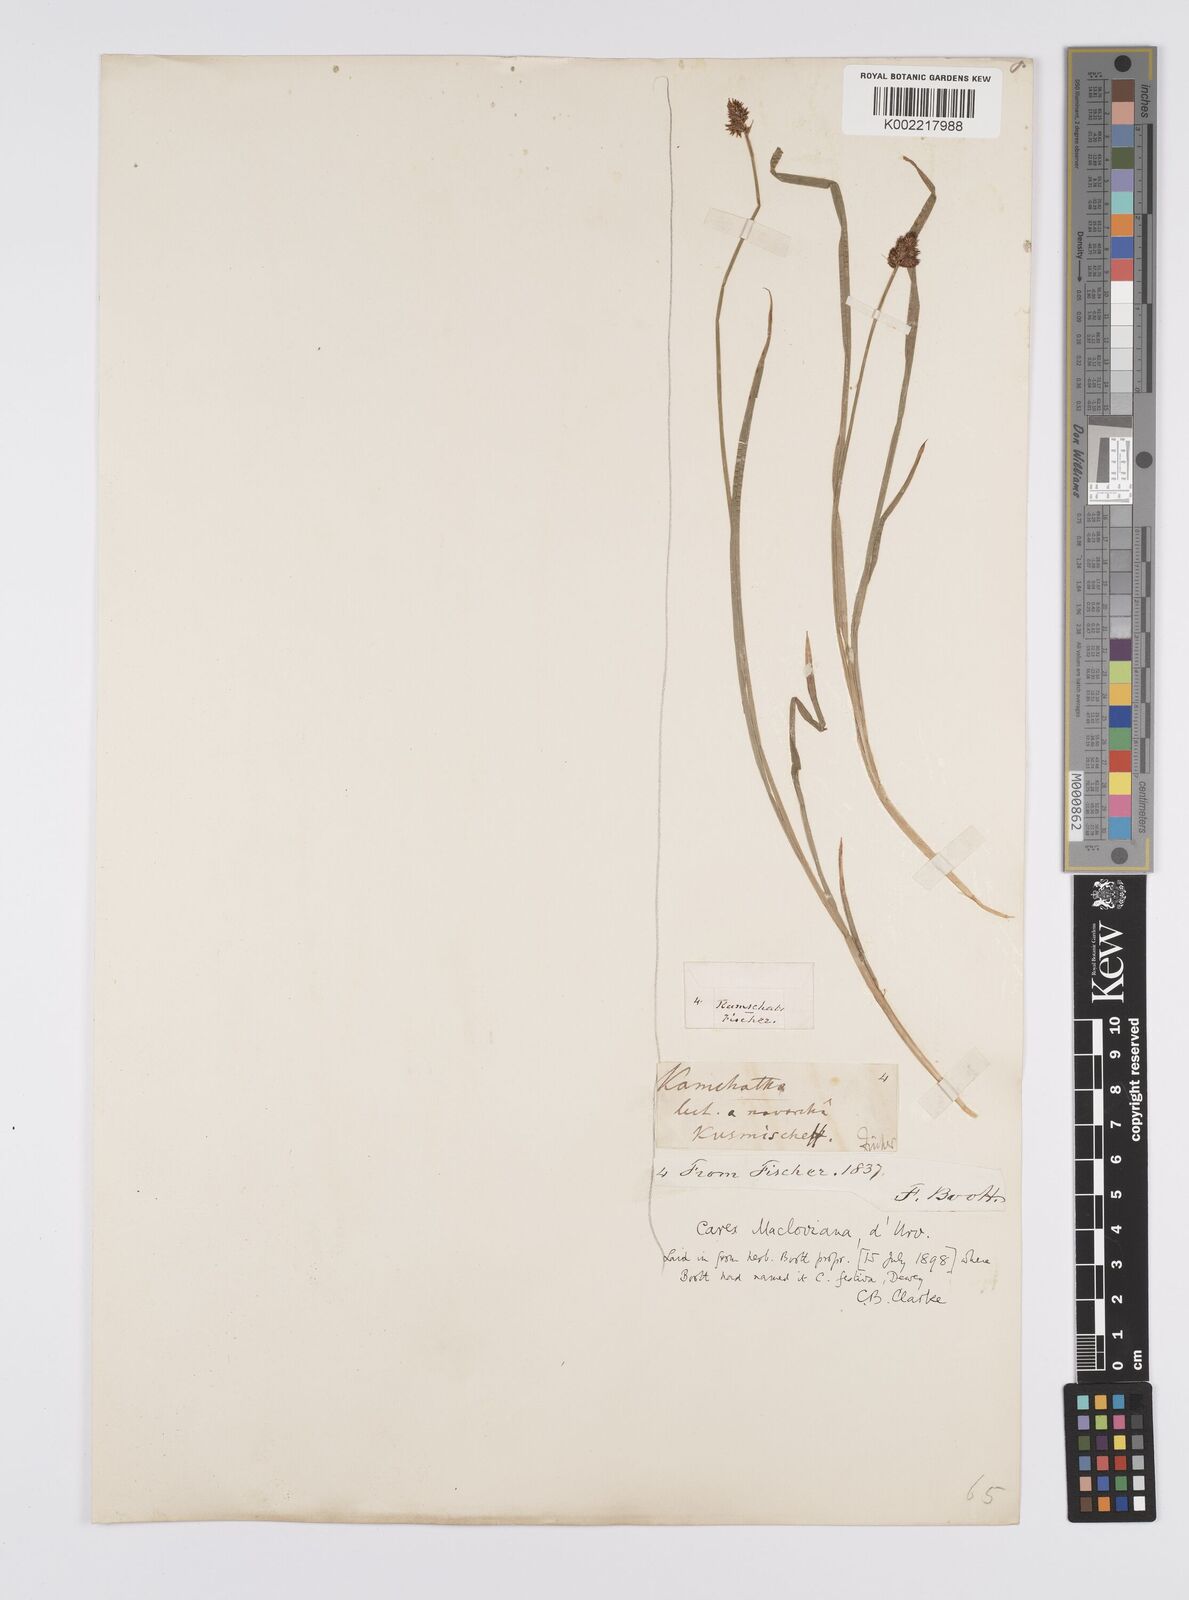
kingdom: Plantae
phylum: Tracheophyta
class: Liliopsida
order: Poales
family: Cyperaceae
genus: Carex
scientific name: Carex macloviana
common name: Falkland island sedge
